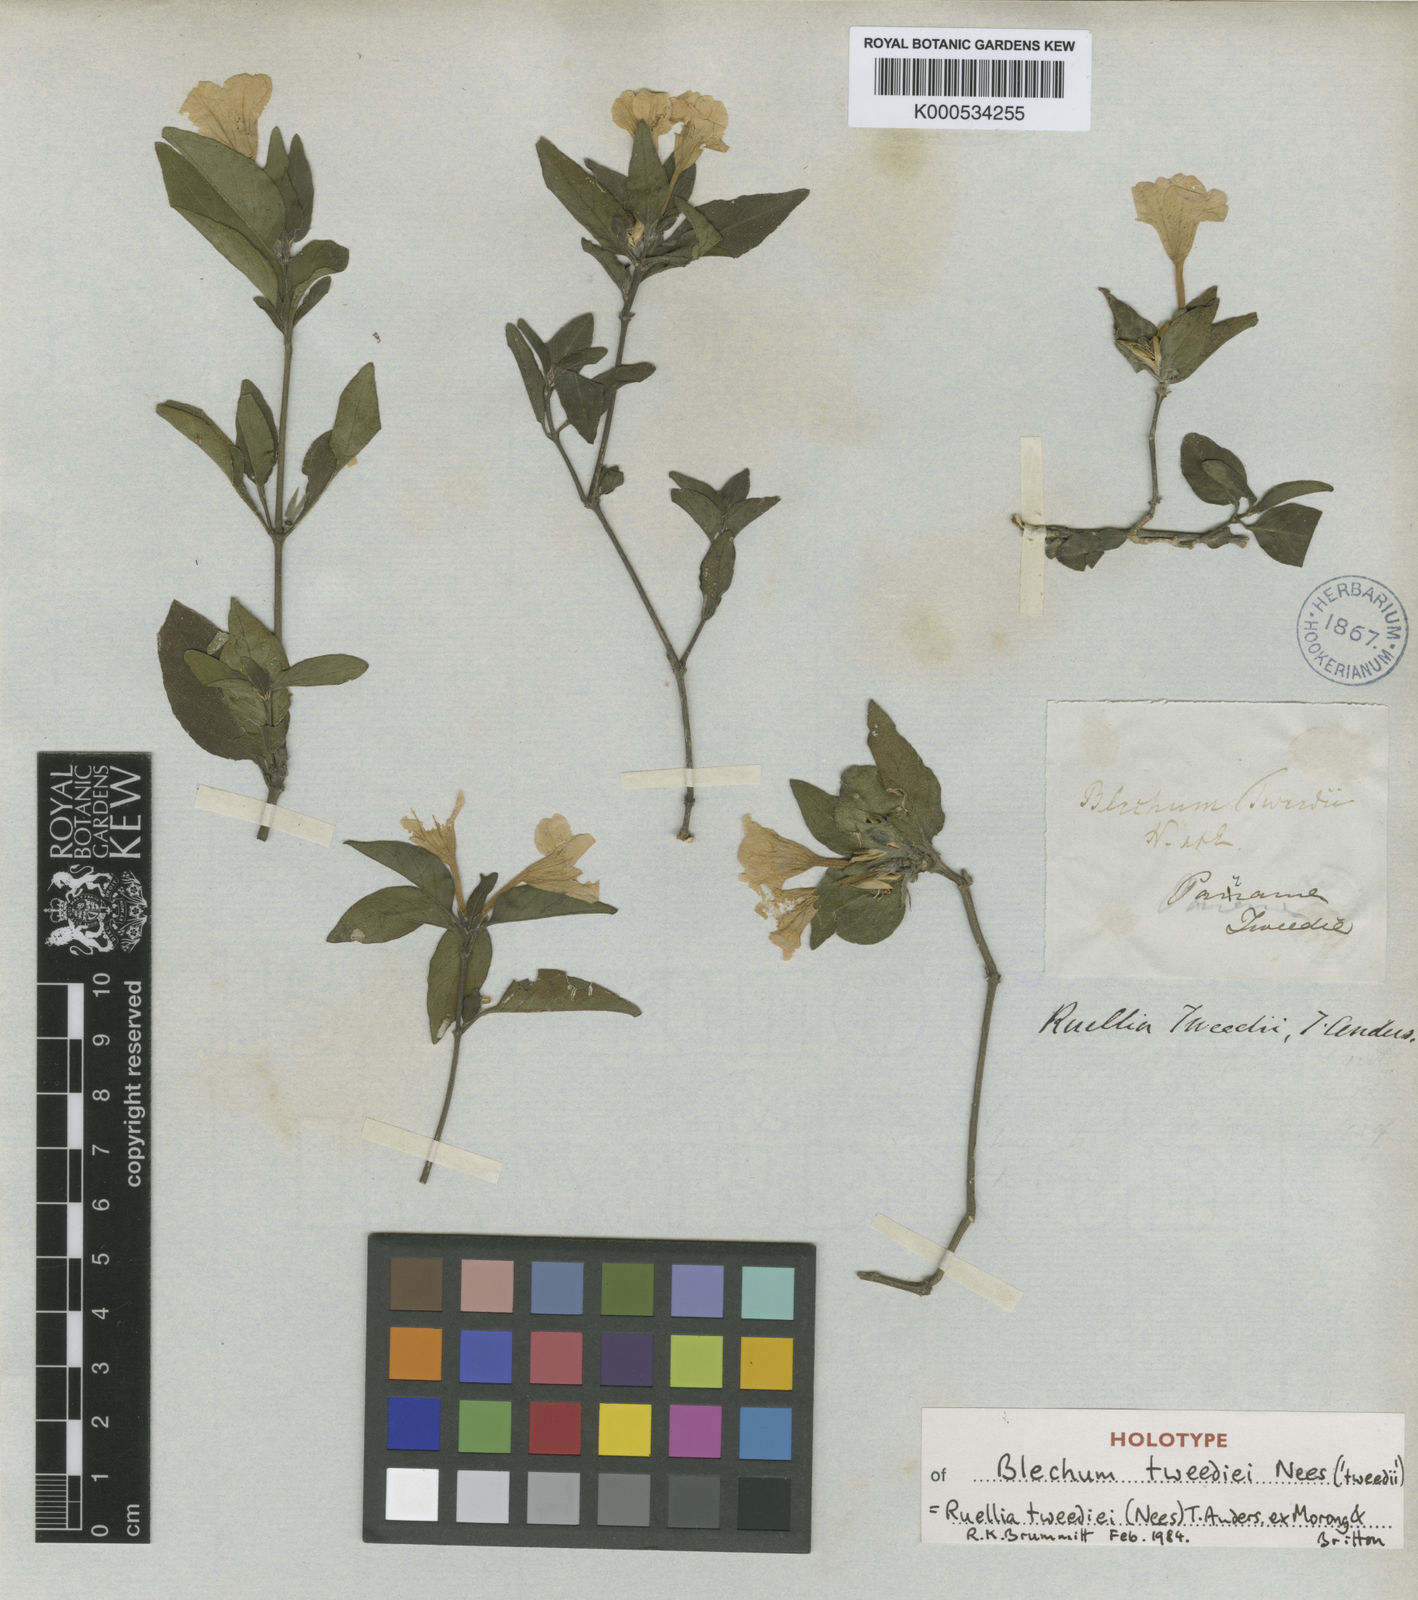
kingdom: Plantae
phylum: Tracheophyta
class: Magnoliopsida
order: Lamiales
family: Acanthaceae
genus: Ruellia
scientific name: Ruellia erythropus
